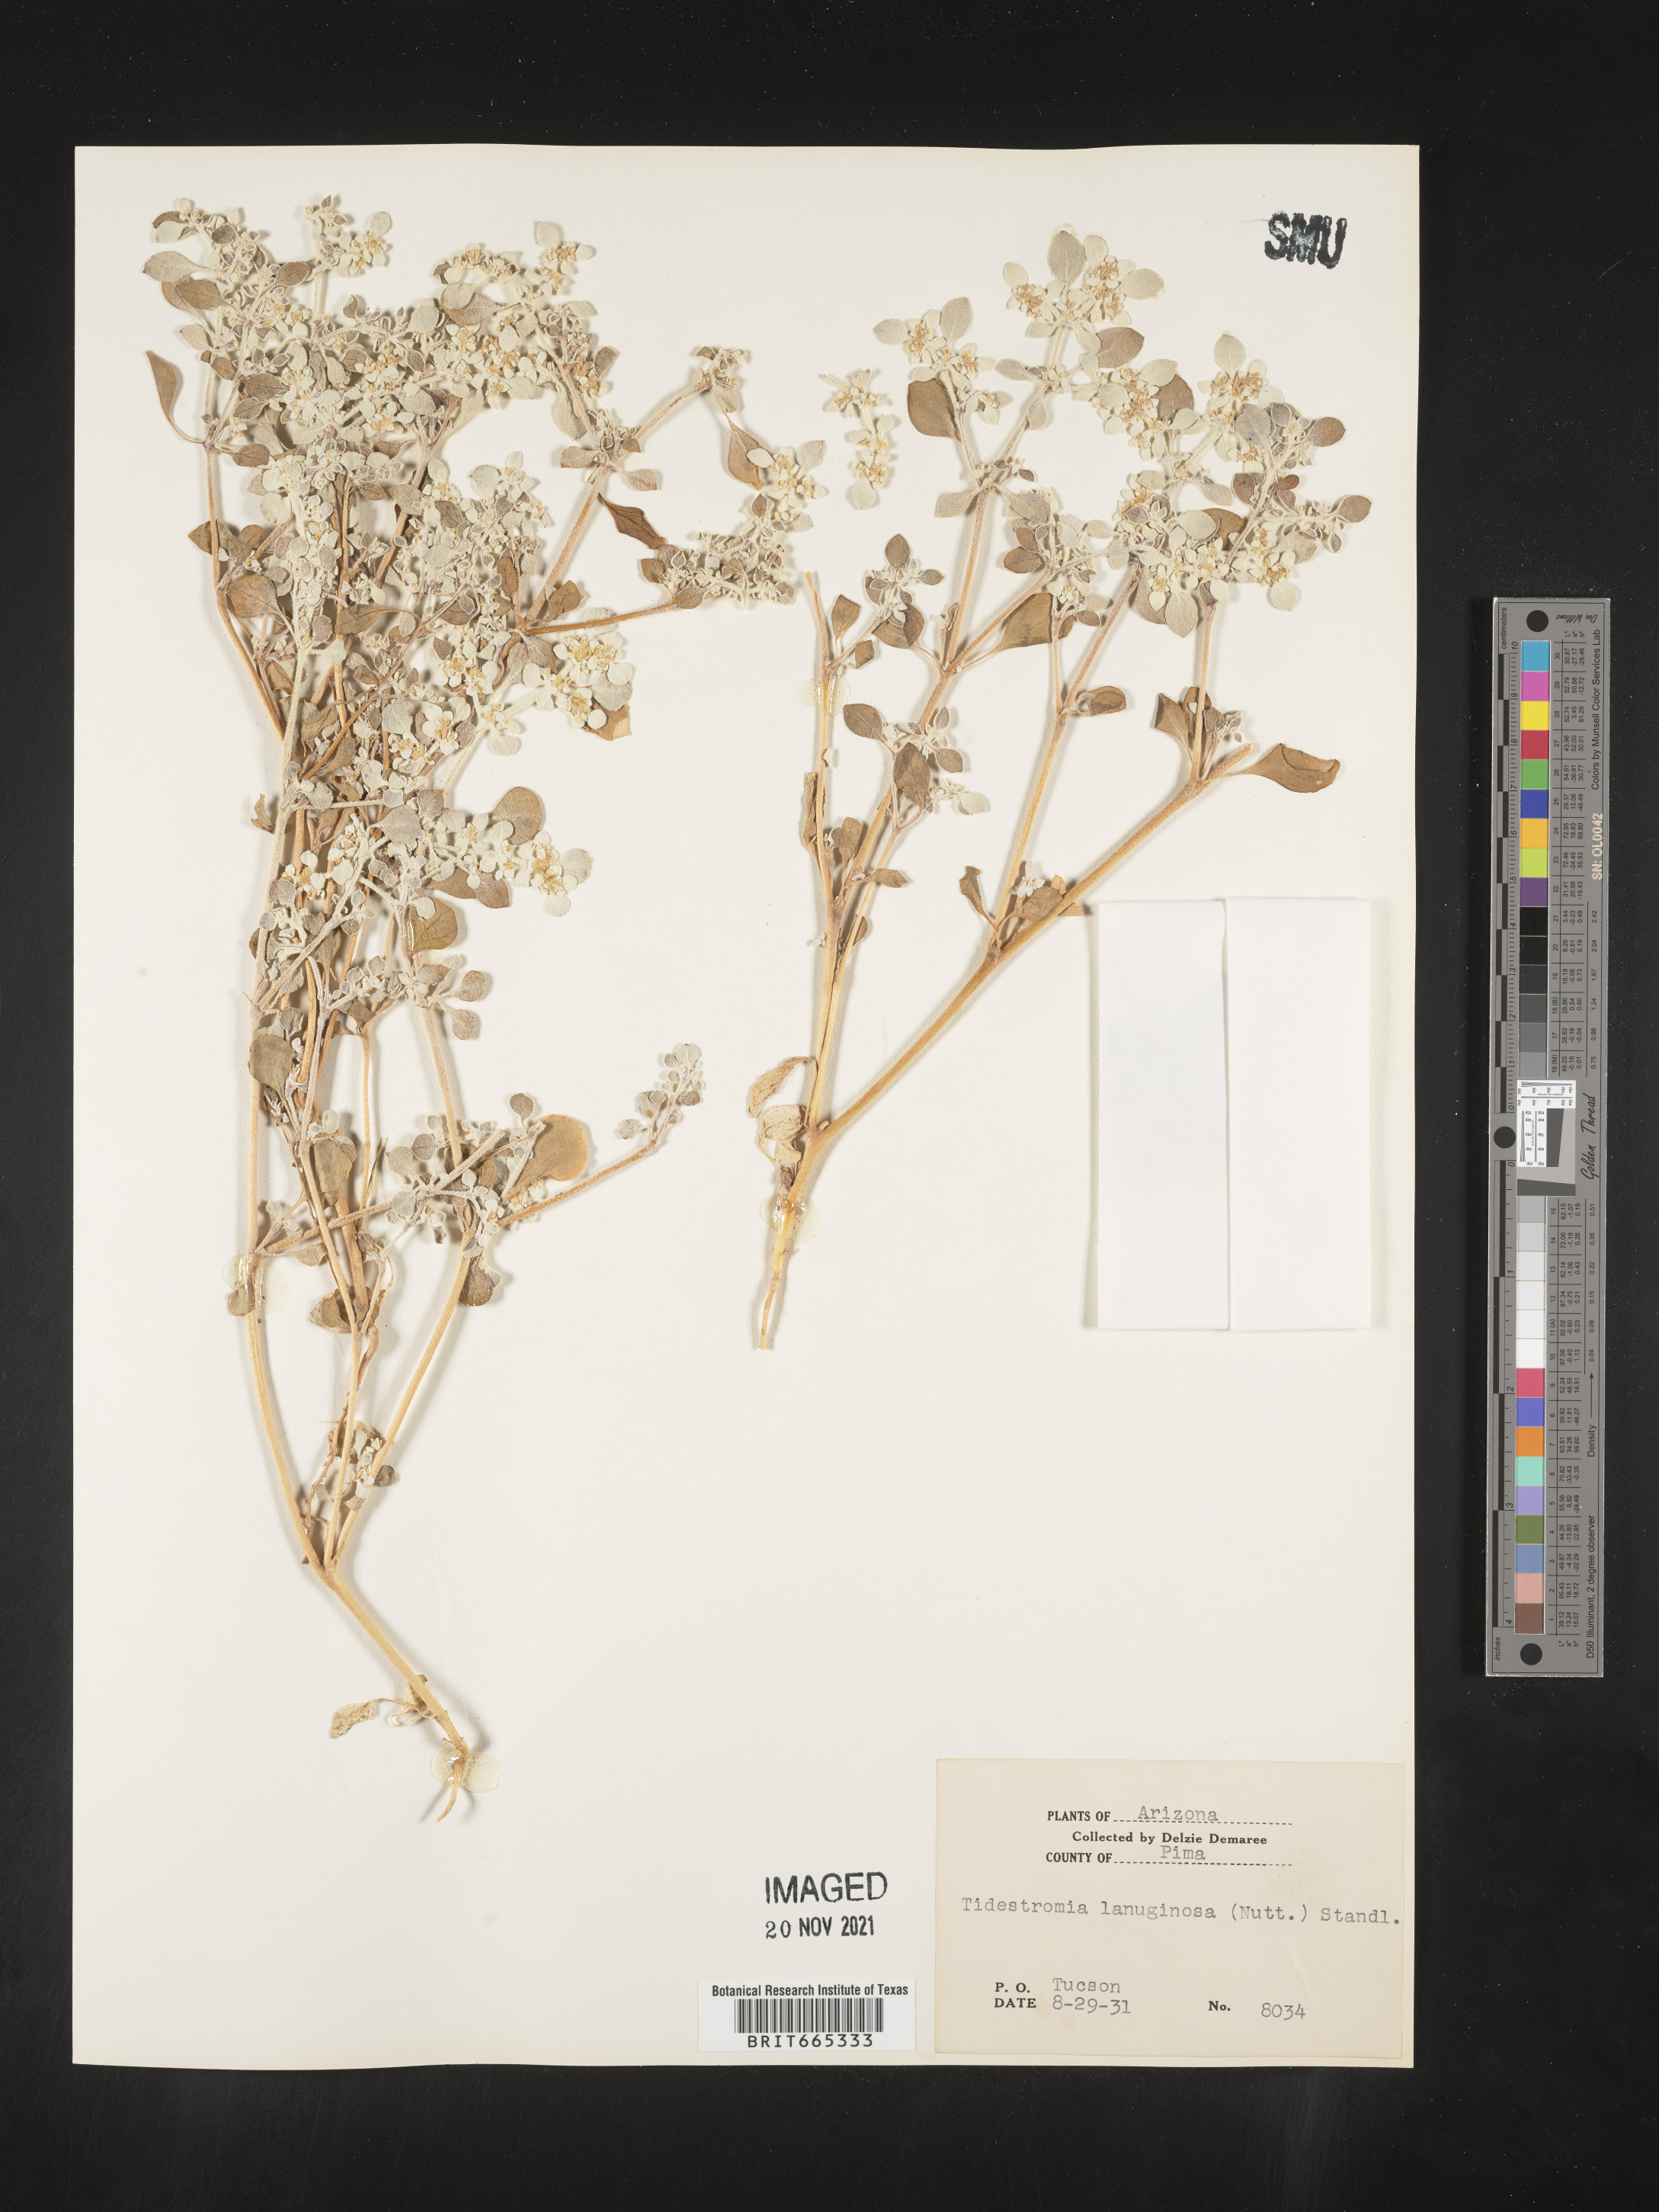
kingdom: Plantae
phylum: Tracheophyta
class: Magnoliopsida
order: Caryophyllales
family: Amaranthaceae
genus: Tidestromia
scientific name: Tidestromia lanuginosa
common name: Woolly tidestromia
